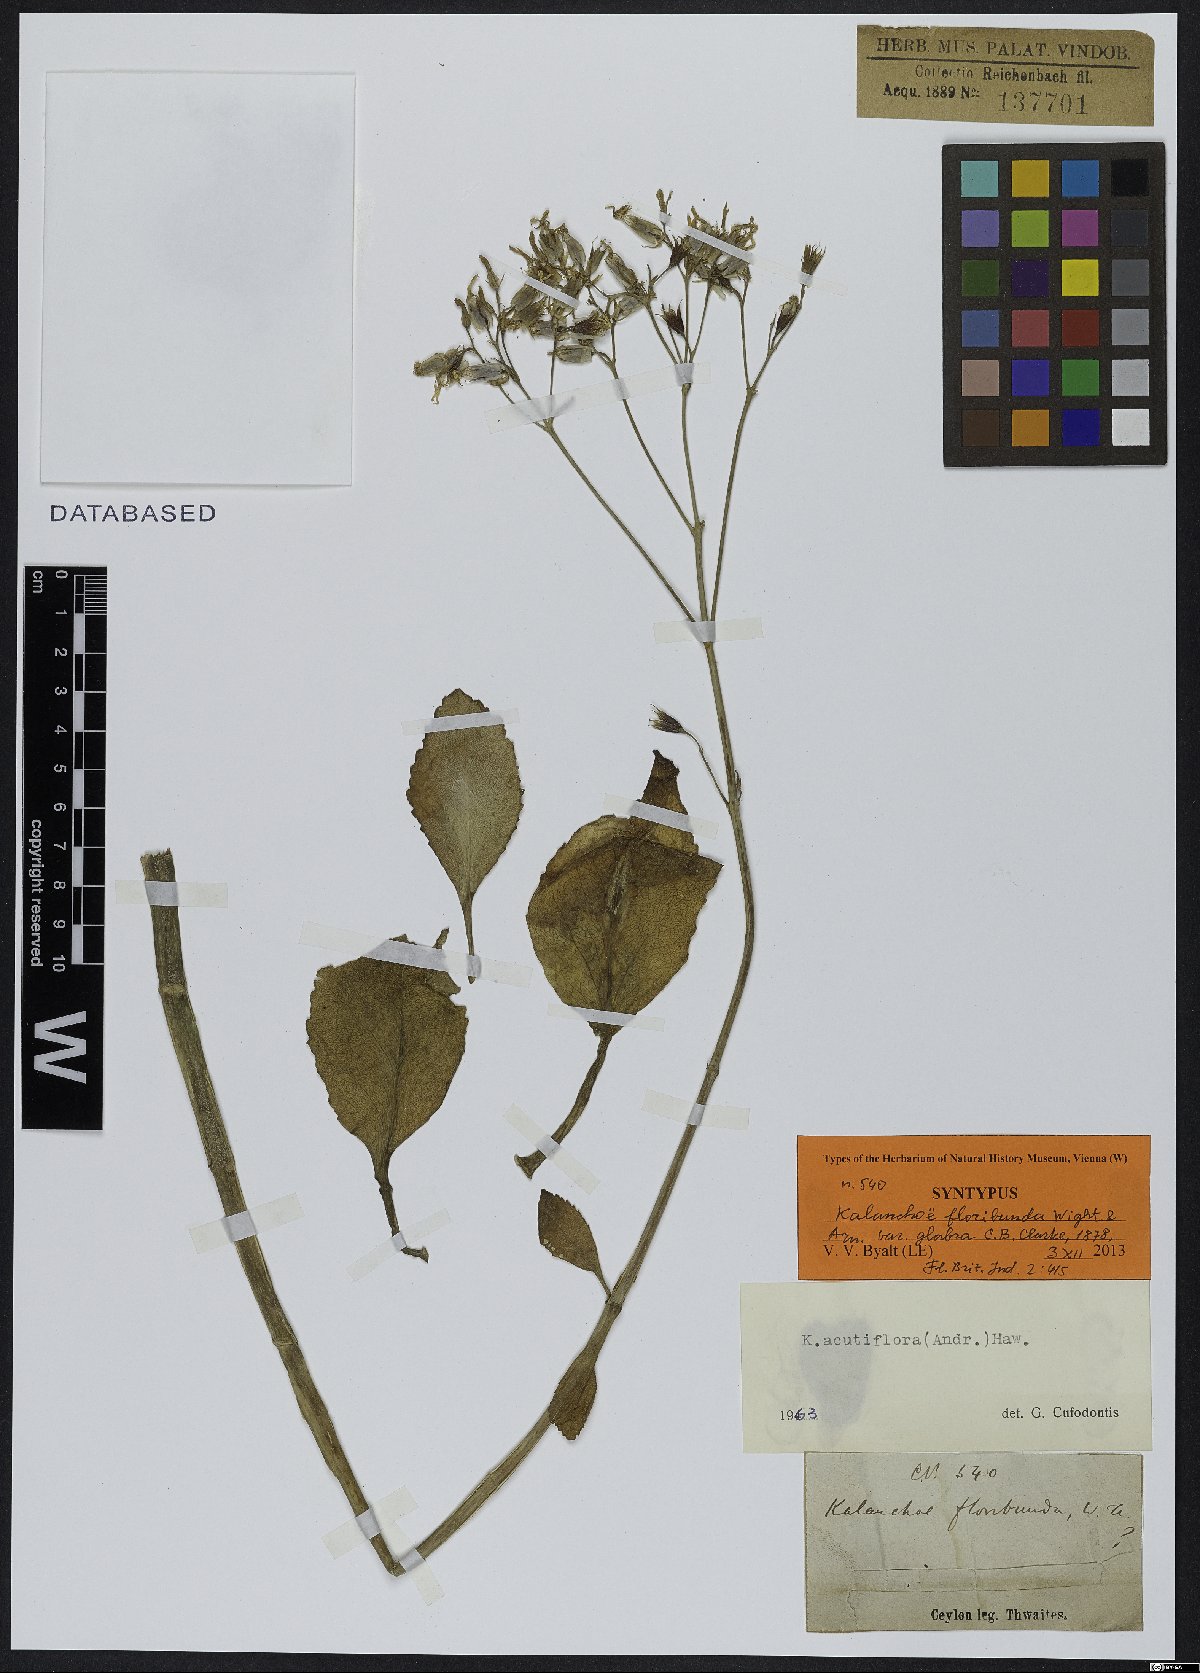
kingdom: Plantae
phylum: Tracheophyta
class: Magnoliopsida
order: Saxifragales
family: Crassulaceae
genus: Kalanchoe
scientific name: Kalanchoe floribunda
